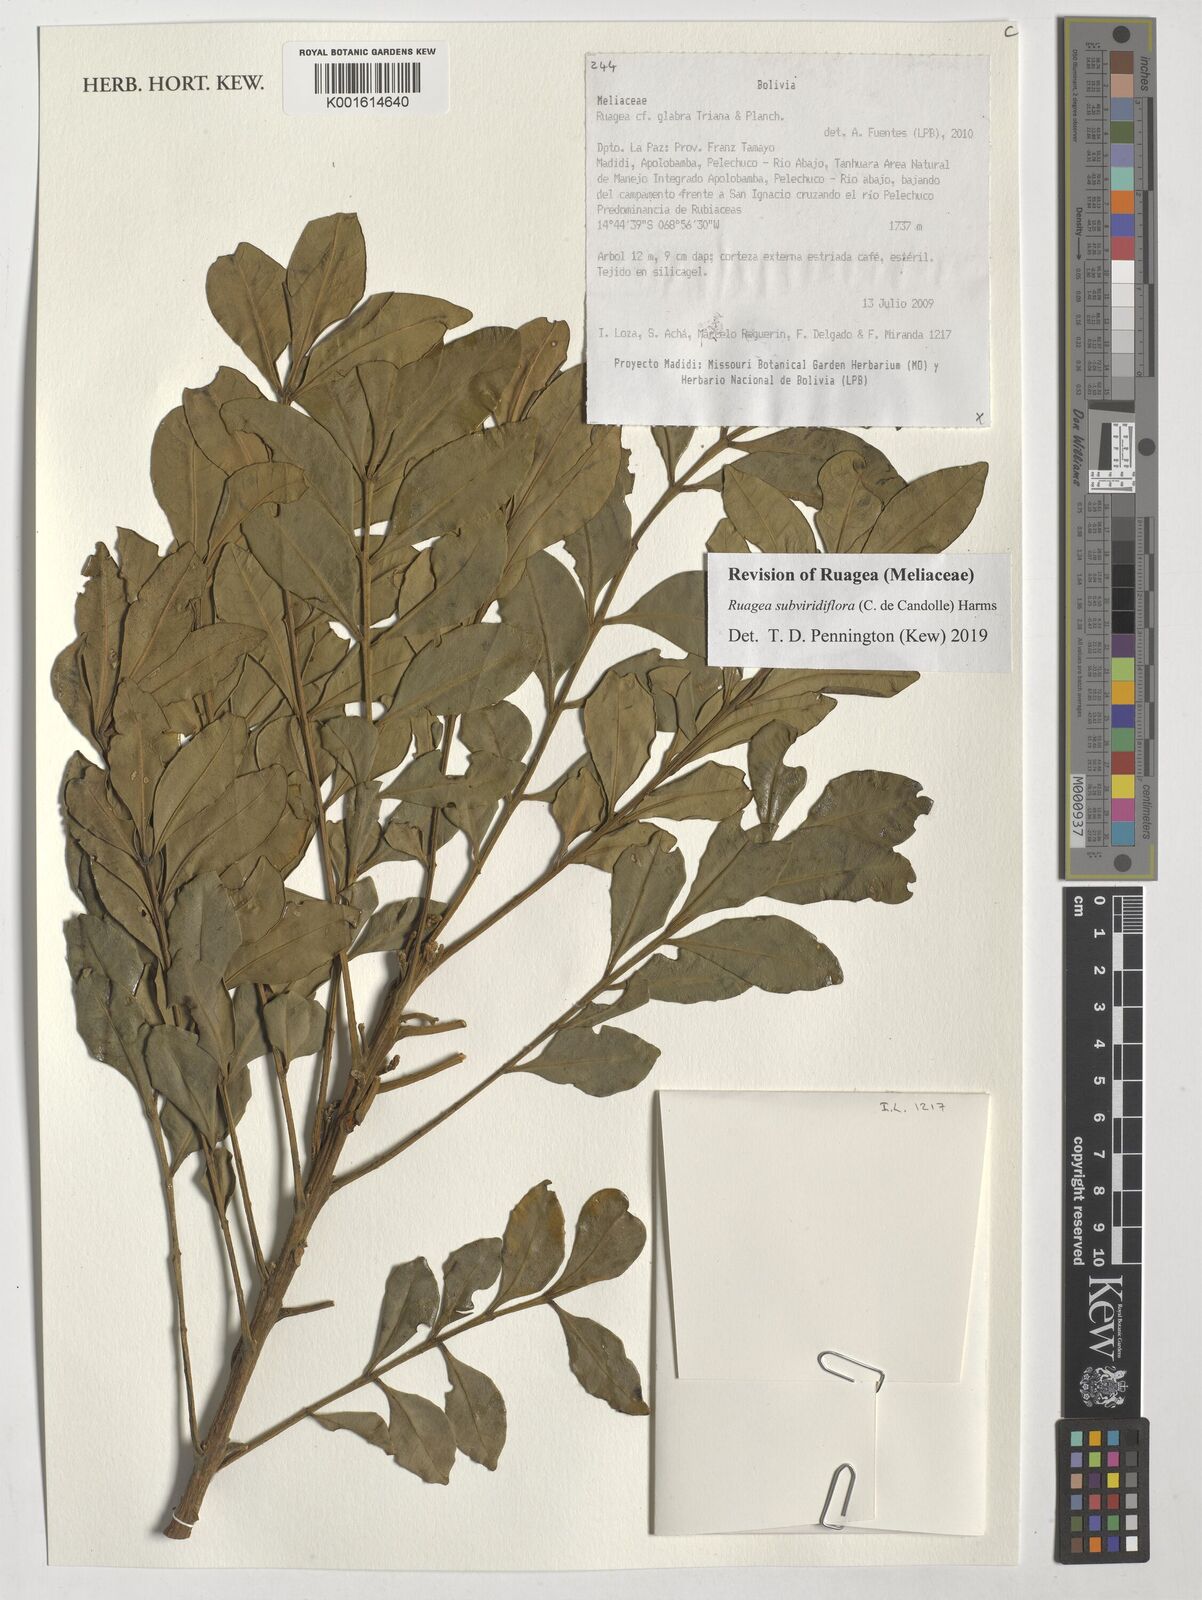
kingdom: Plantae
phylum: Tracheophyta
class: Magnoliopsida
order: Sapindales
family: Meliaceae
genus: Ruagea
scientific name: Ruagea subviridiflora
